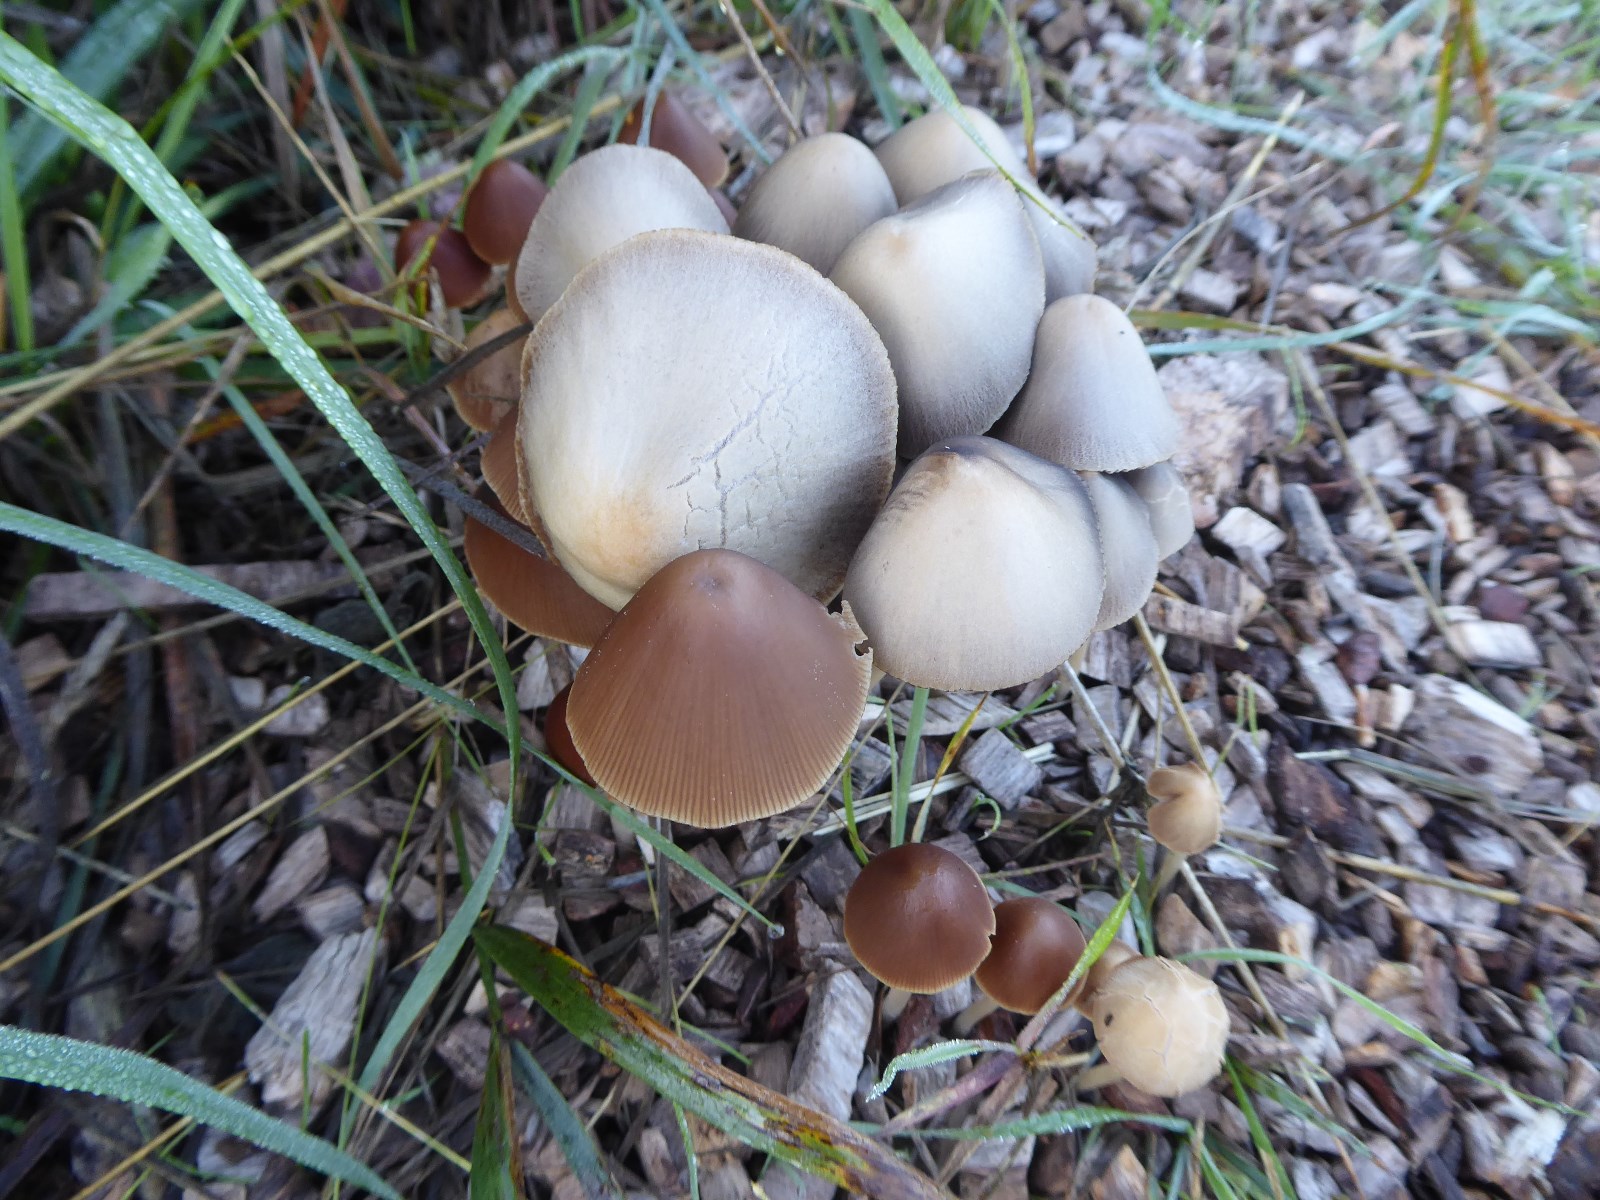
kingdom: Fungi
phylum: Basidiomycota
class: Agaricomycetes
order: Agaricales
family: Psathyrellaceae
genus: Parasola
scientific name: Parasola conopilea
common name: kegle-hjulhat
